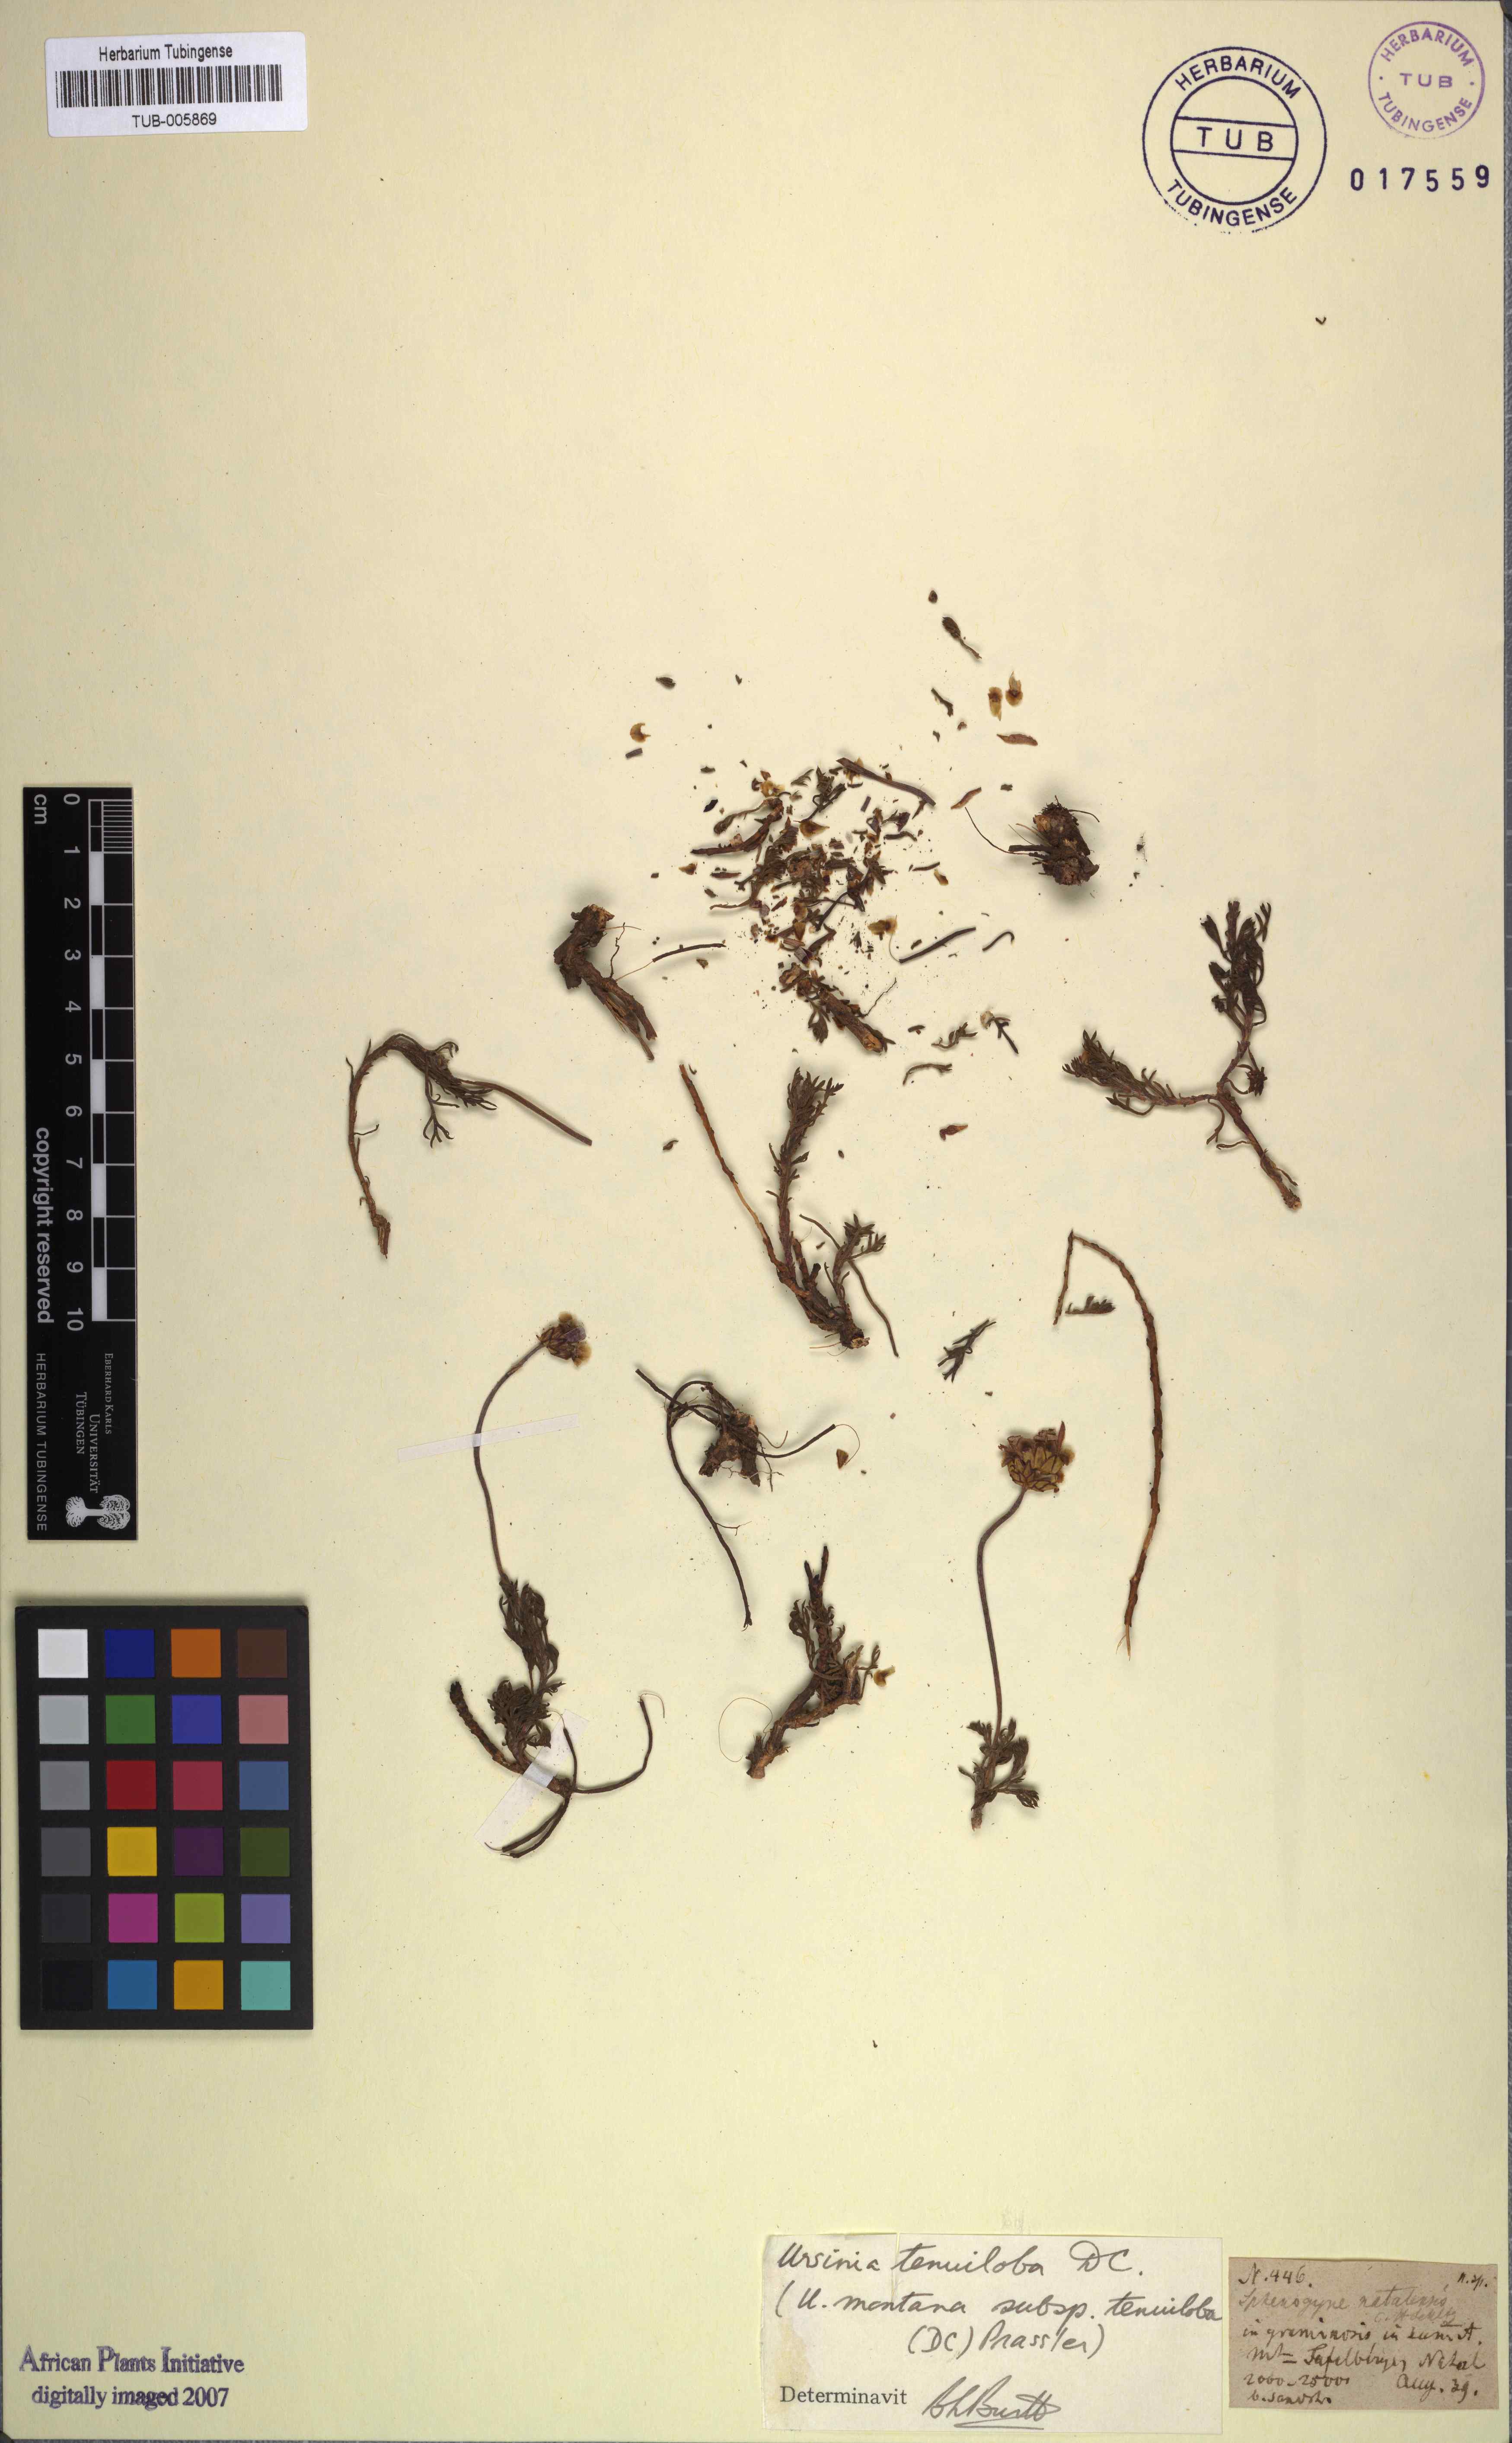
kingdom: Plantae
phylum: Tracheophyta
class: Magnoliopsida
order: Asterales
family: Asteraceae
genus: Ursinia
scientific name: Ursinia tenuiloba
